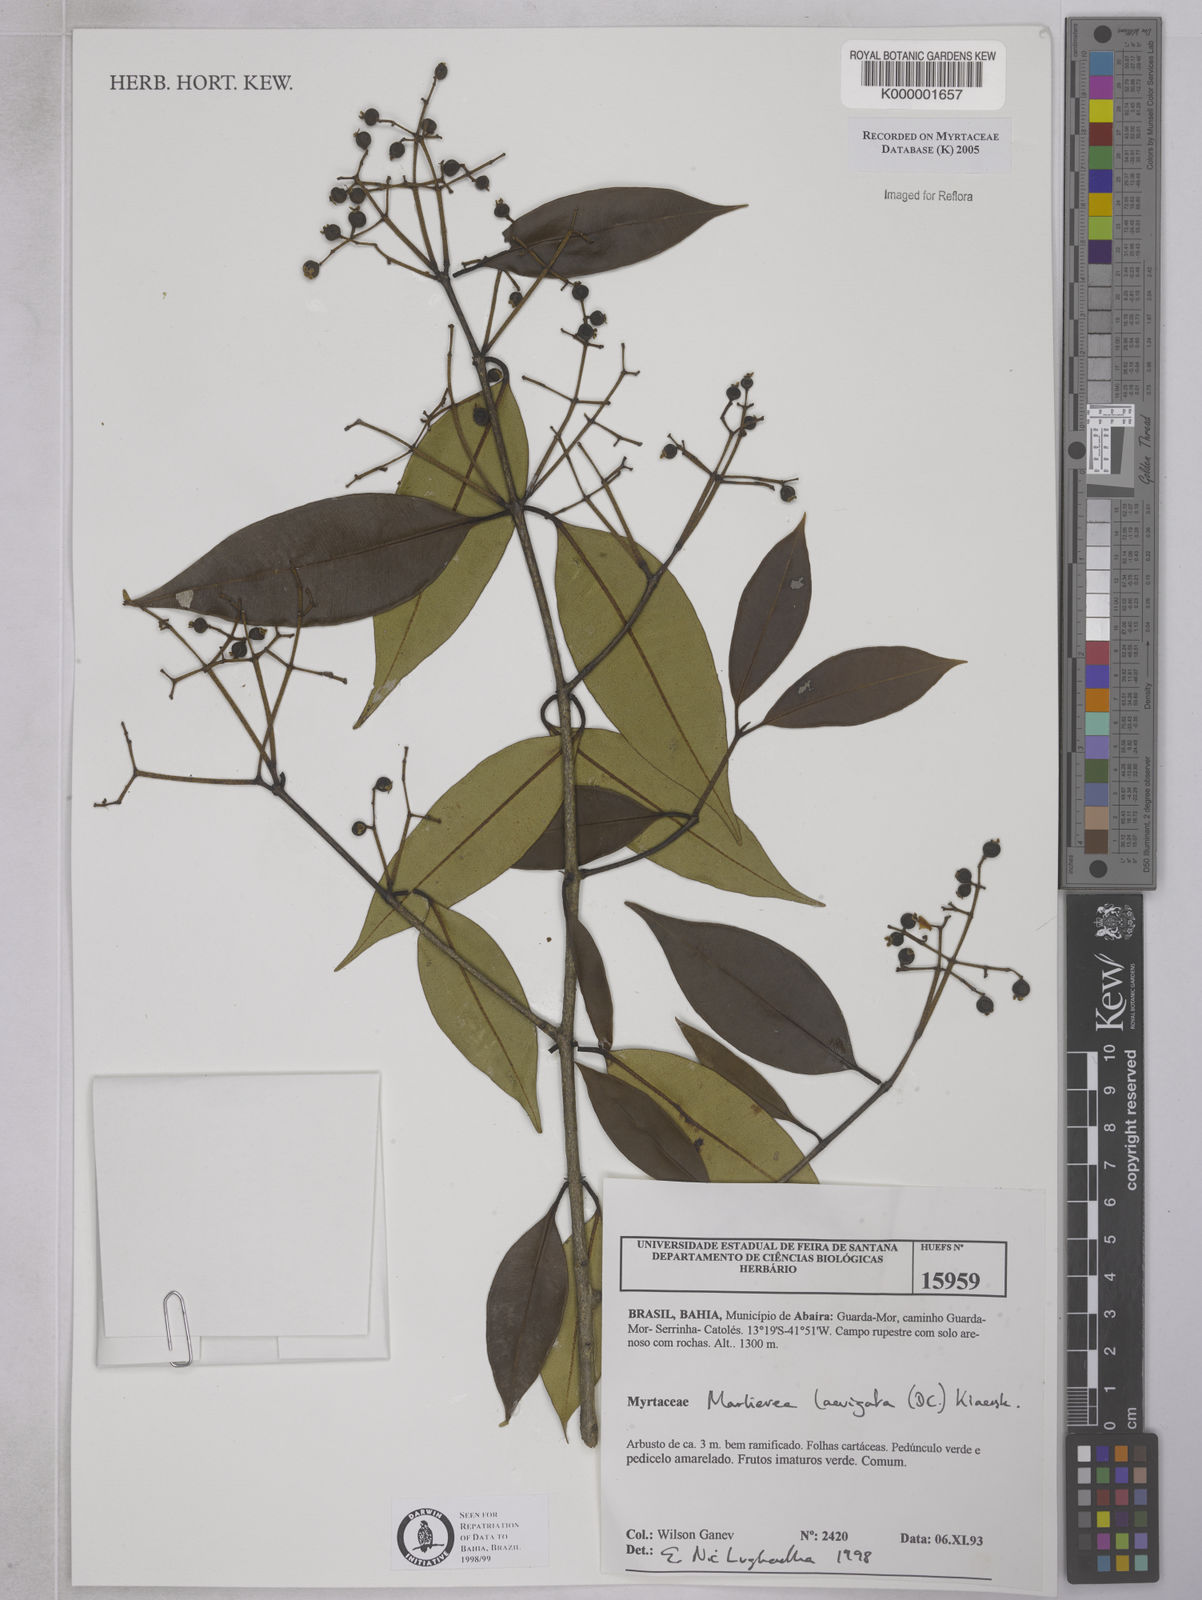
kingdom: Plantae
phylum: Tracheophyta
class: Magnoliopsida
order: Myrtales
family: Myrtaceae
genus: Myrcia
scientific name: Myrcia multipunctata
